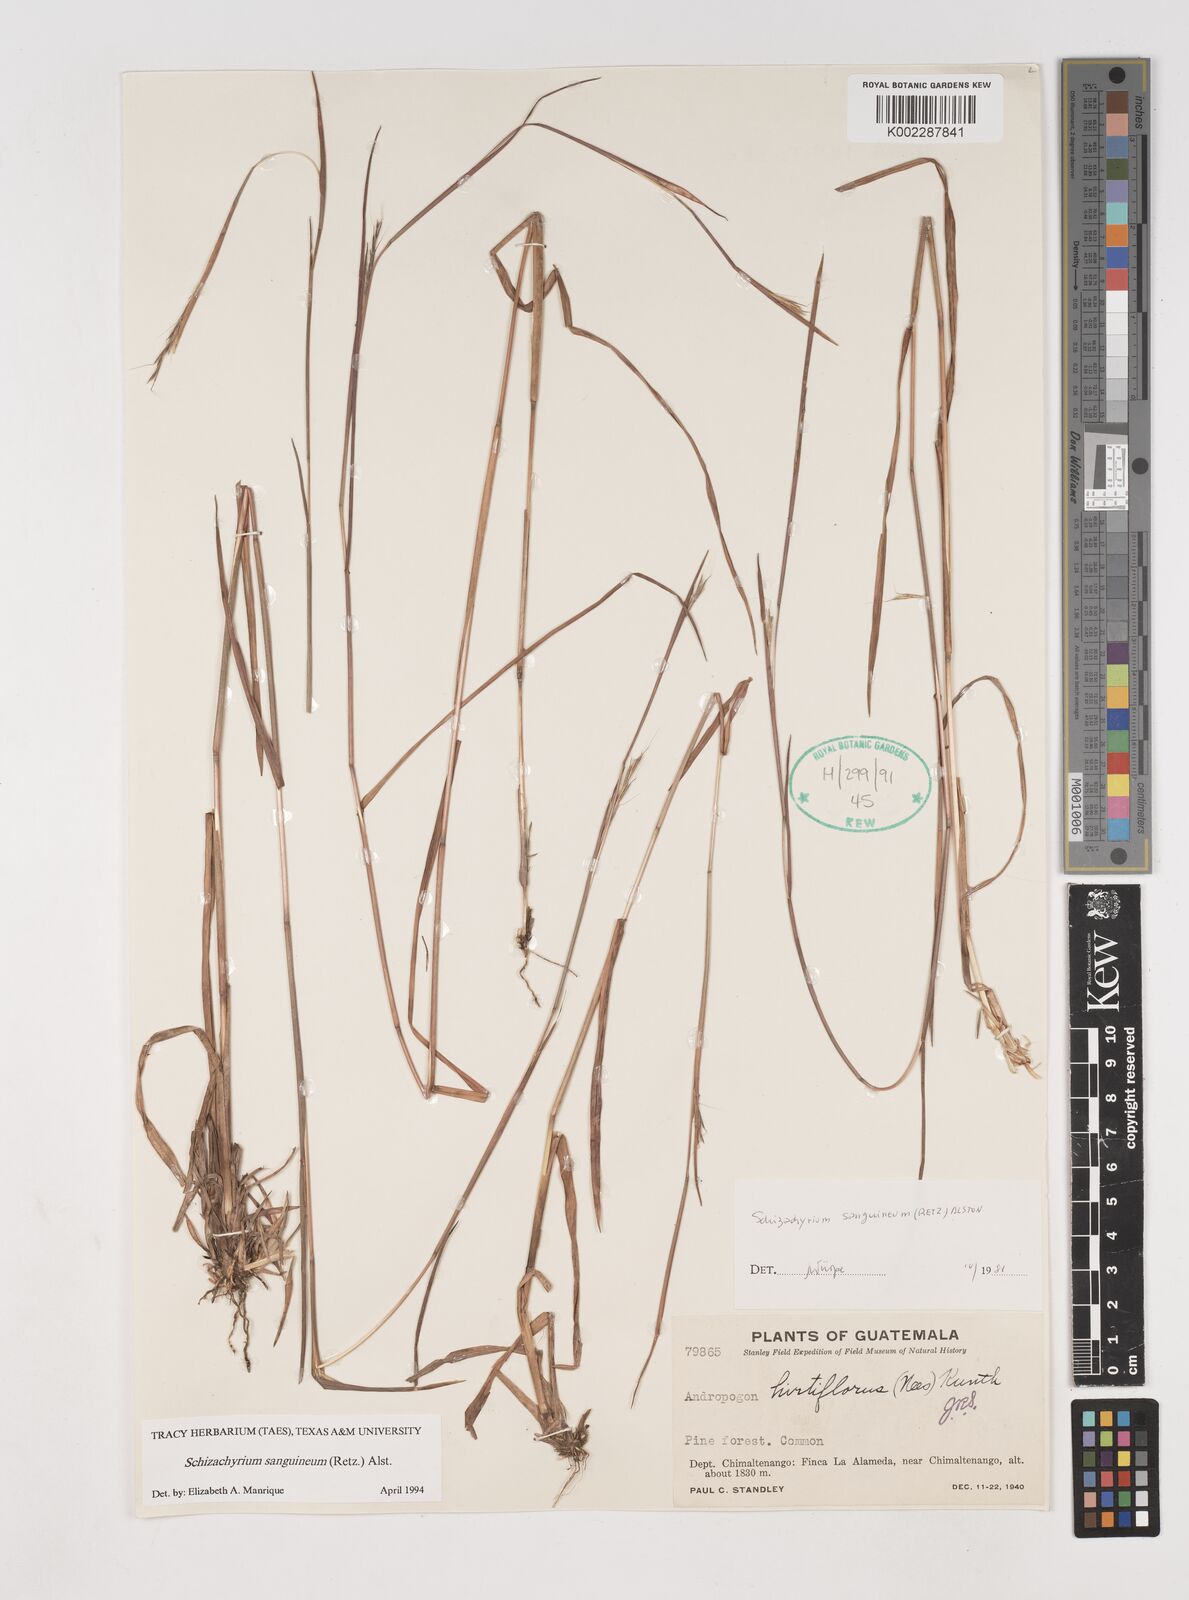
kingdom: Plantae
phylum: Tracheophyta
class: Liliopsida
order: Poales
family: Poaceae
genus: Schizachyrium
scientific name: Schizachyrium sanguineum
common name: Crimson bluestem
